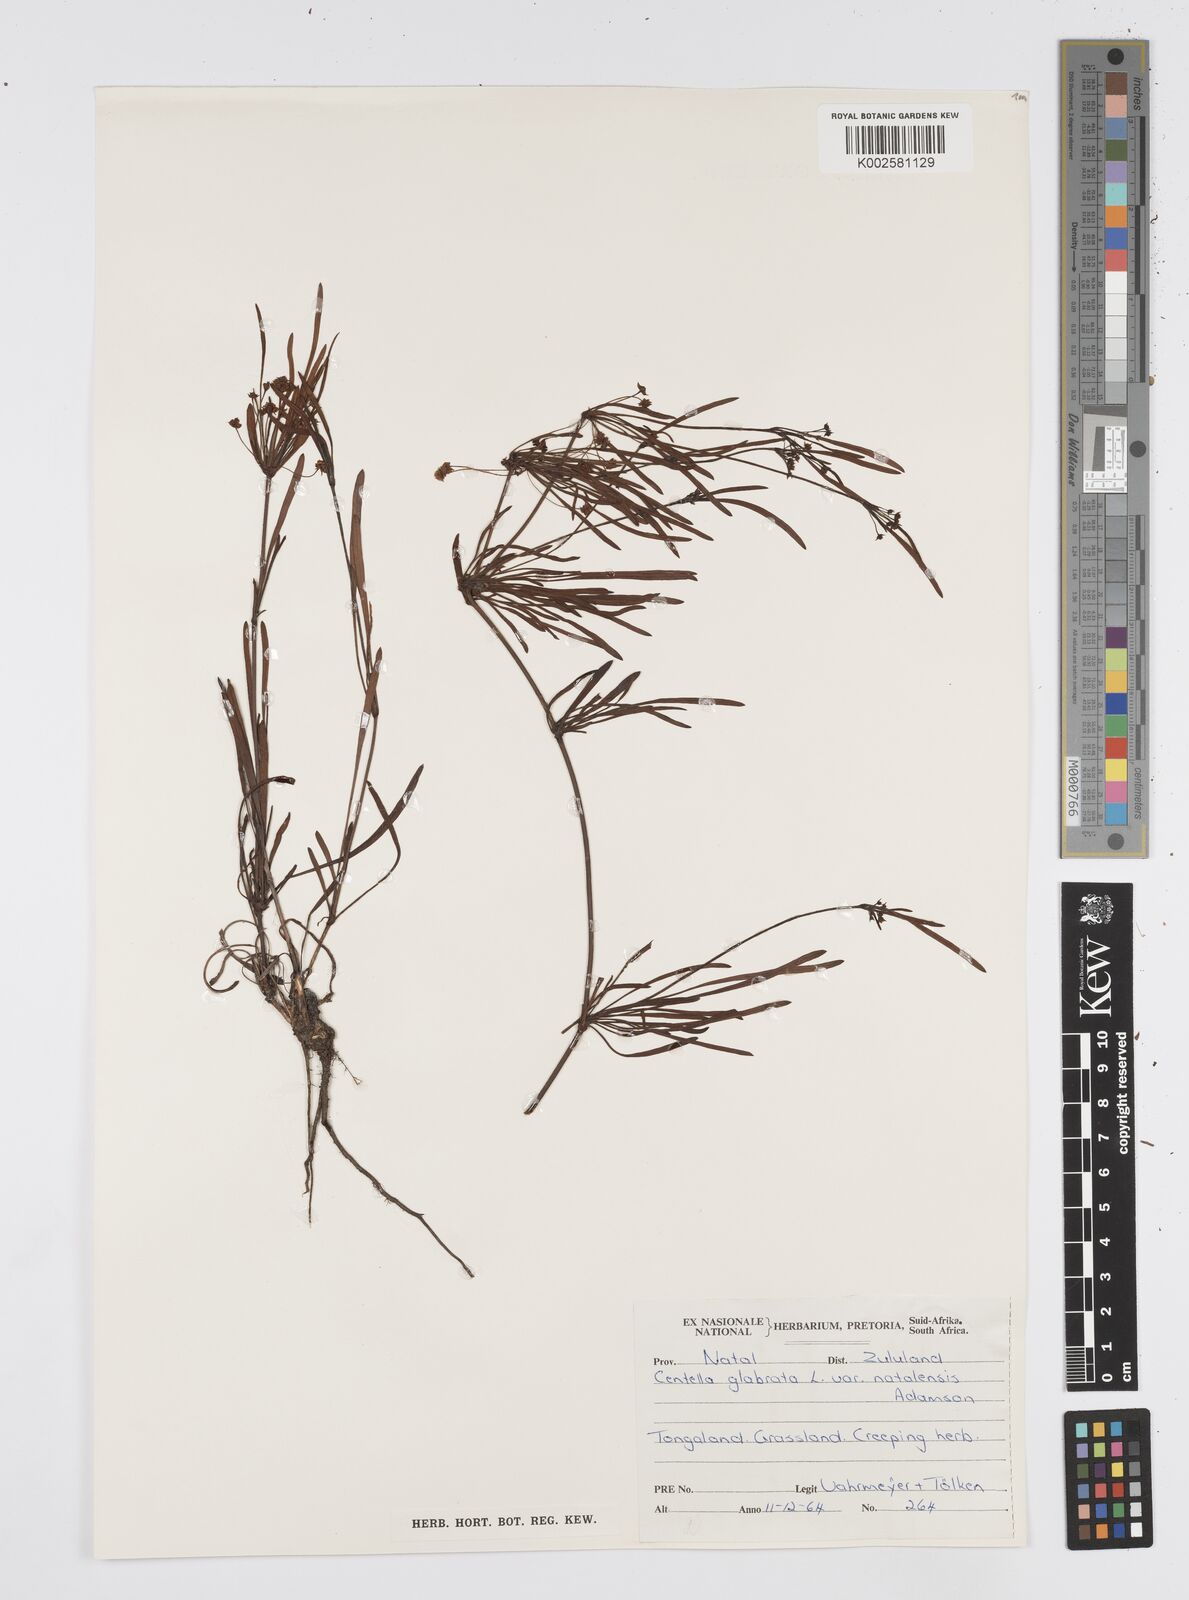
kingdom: Plantae
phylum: Tracheophyta
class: Magnoliopsida
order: Apiales
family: Apiaceae
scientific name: Apiaceae
